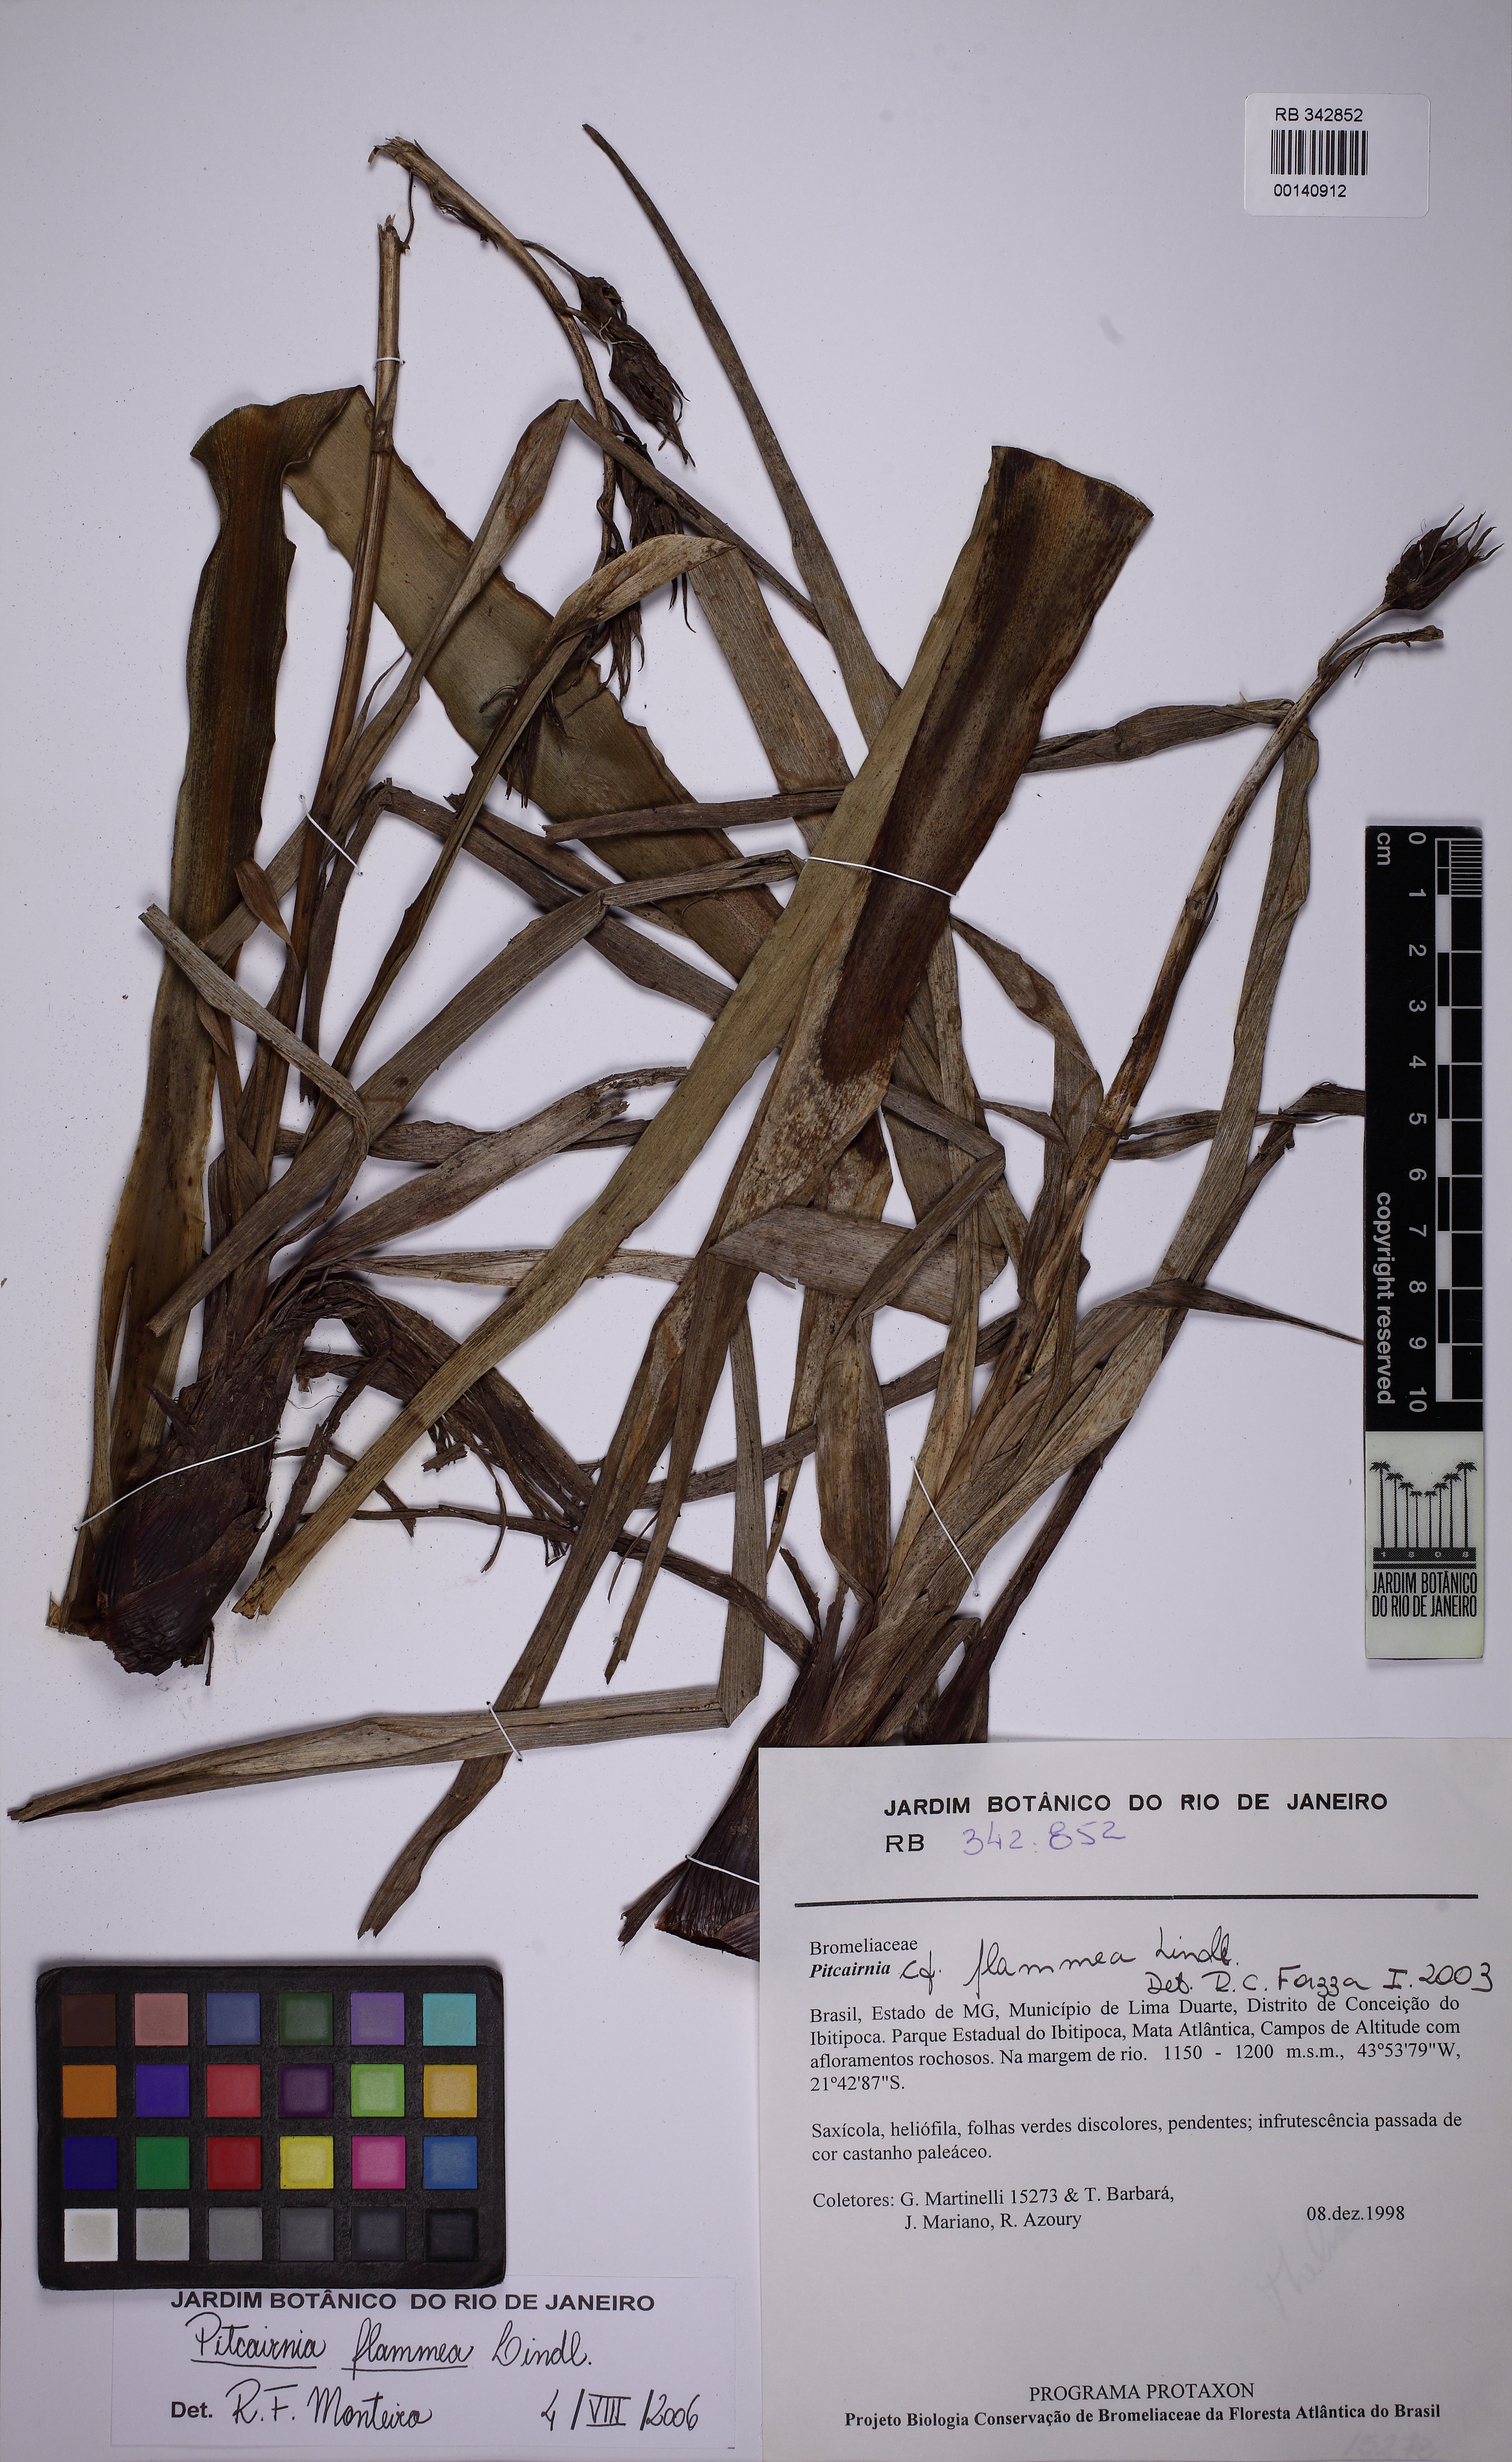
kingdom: Plantae
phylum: Tracheophyta
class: Liliopsida
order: Poales
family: Bromeliaceae
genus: Pitcairnia
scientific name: Pitcairnia flammea
